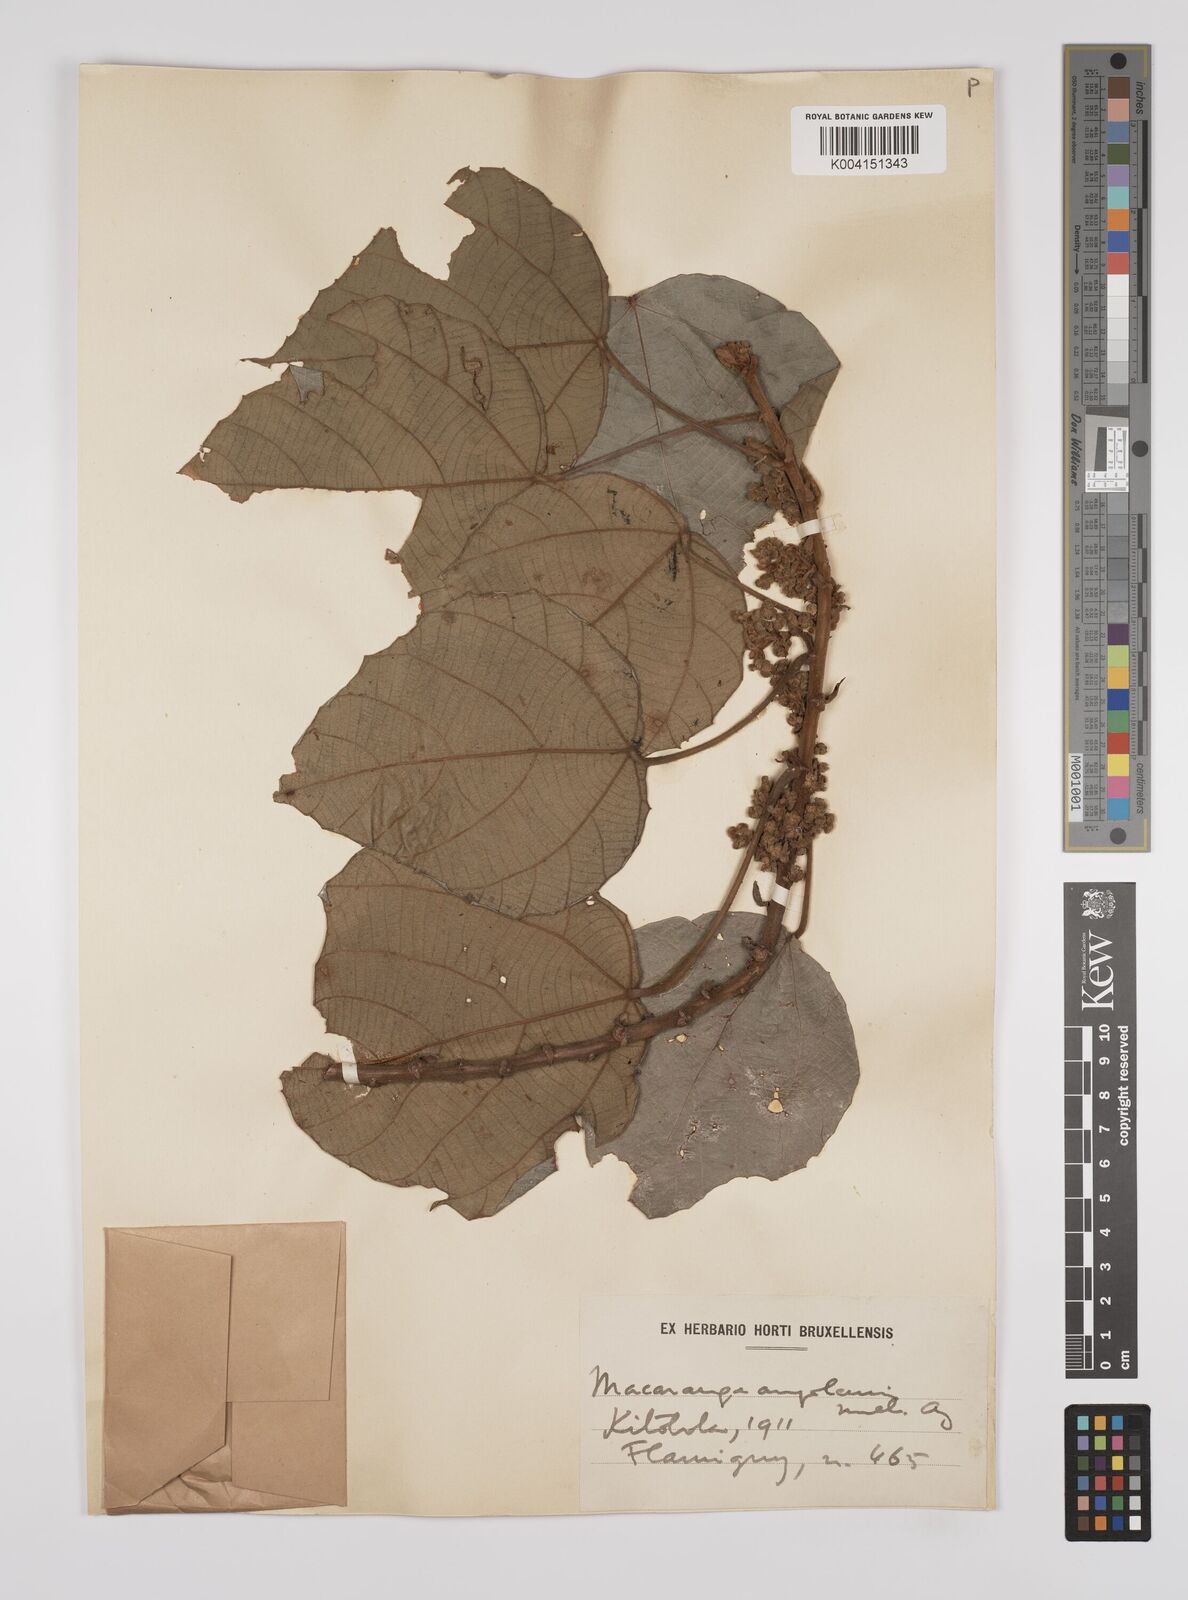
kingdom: Plantae
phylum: Tracheophyta
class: Magnoliopsida
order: Malpighiales
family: Euphorbiaceae
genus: Macaranga
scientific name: Macaranga angolensis
